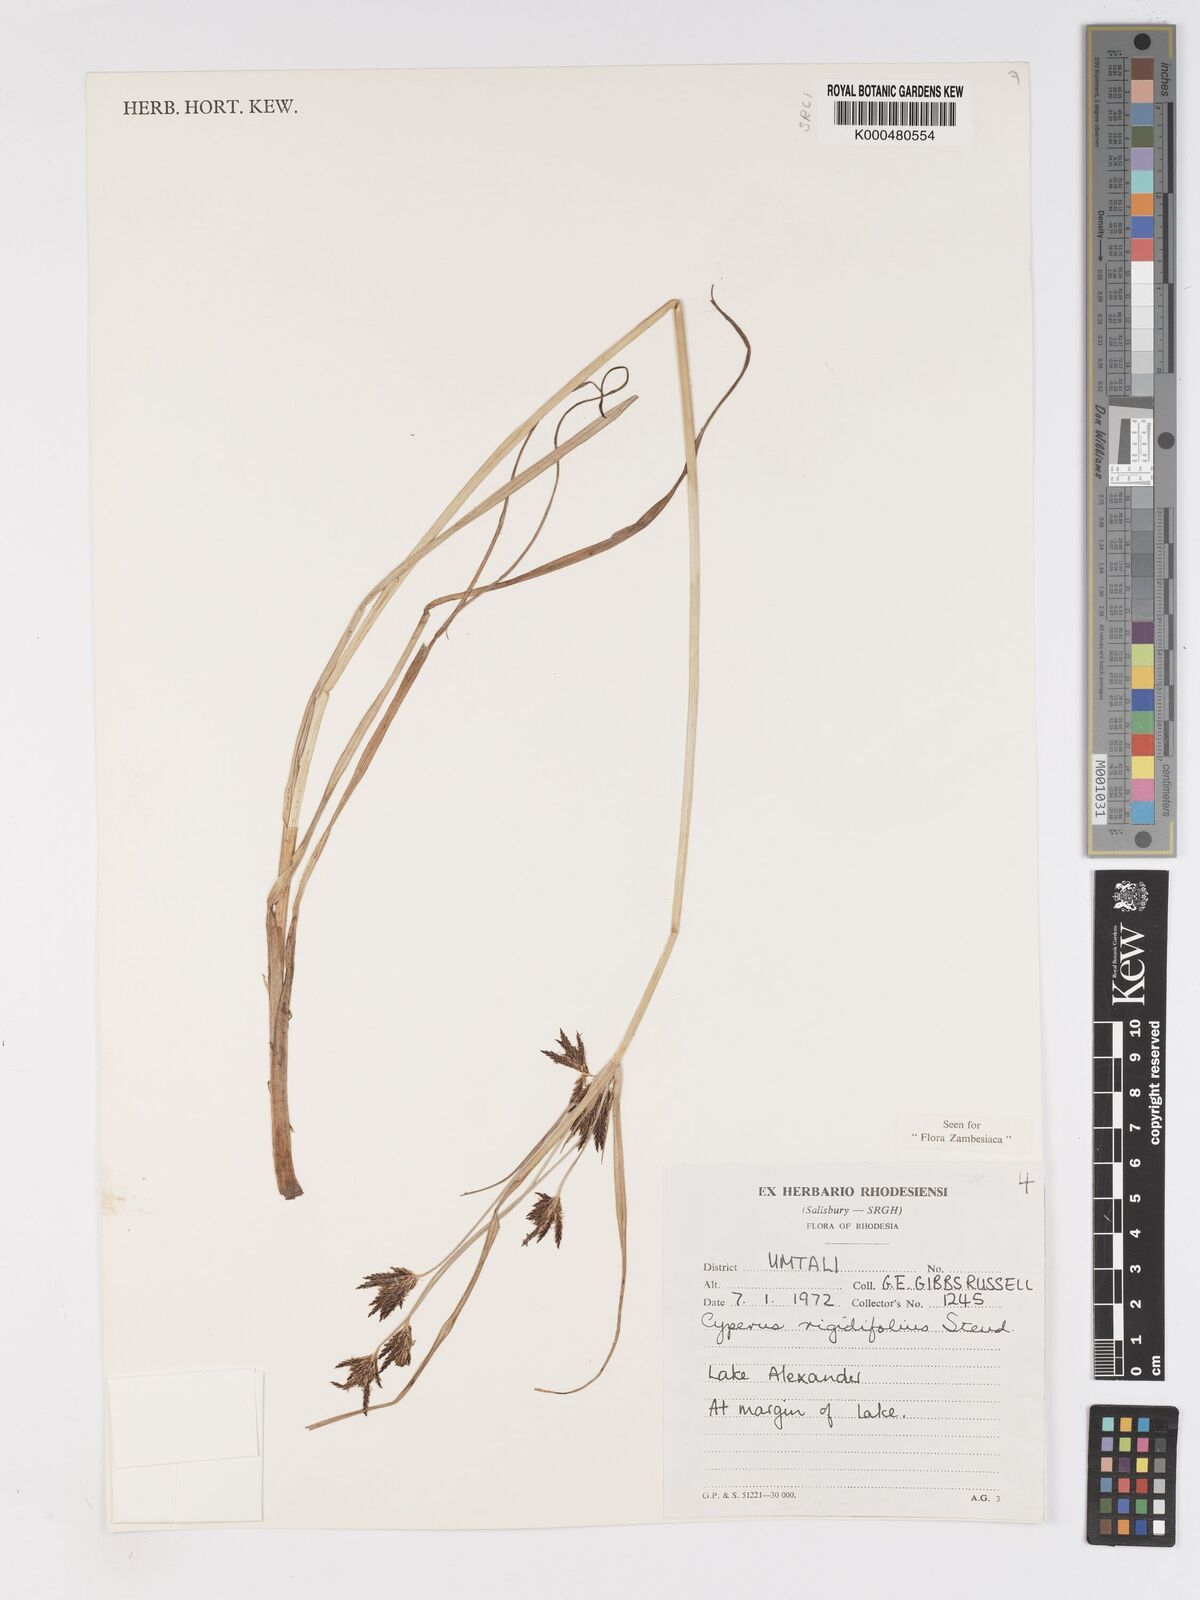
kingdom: Plantae
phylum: Tracheophyta
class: Liliopsida
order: Poales
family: Cyperaceae
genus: Cyperus
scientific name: Cyperus rigidifolius
